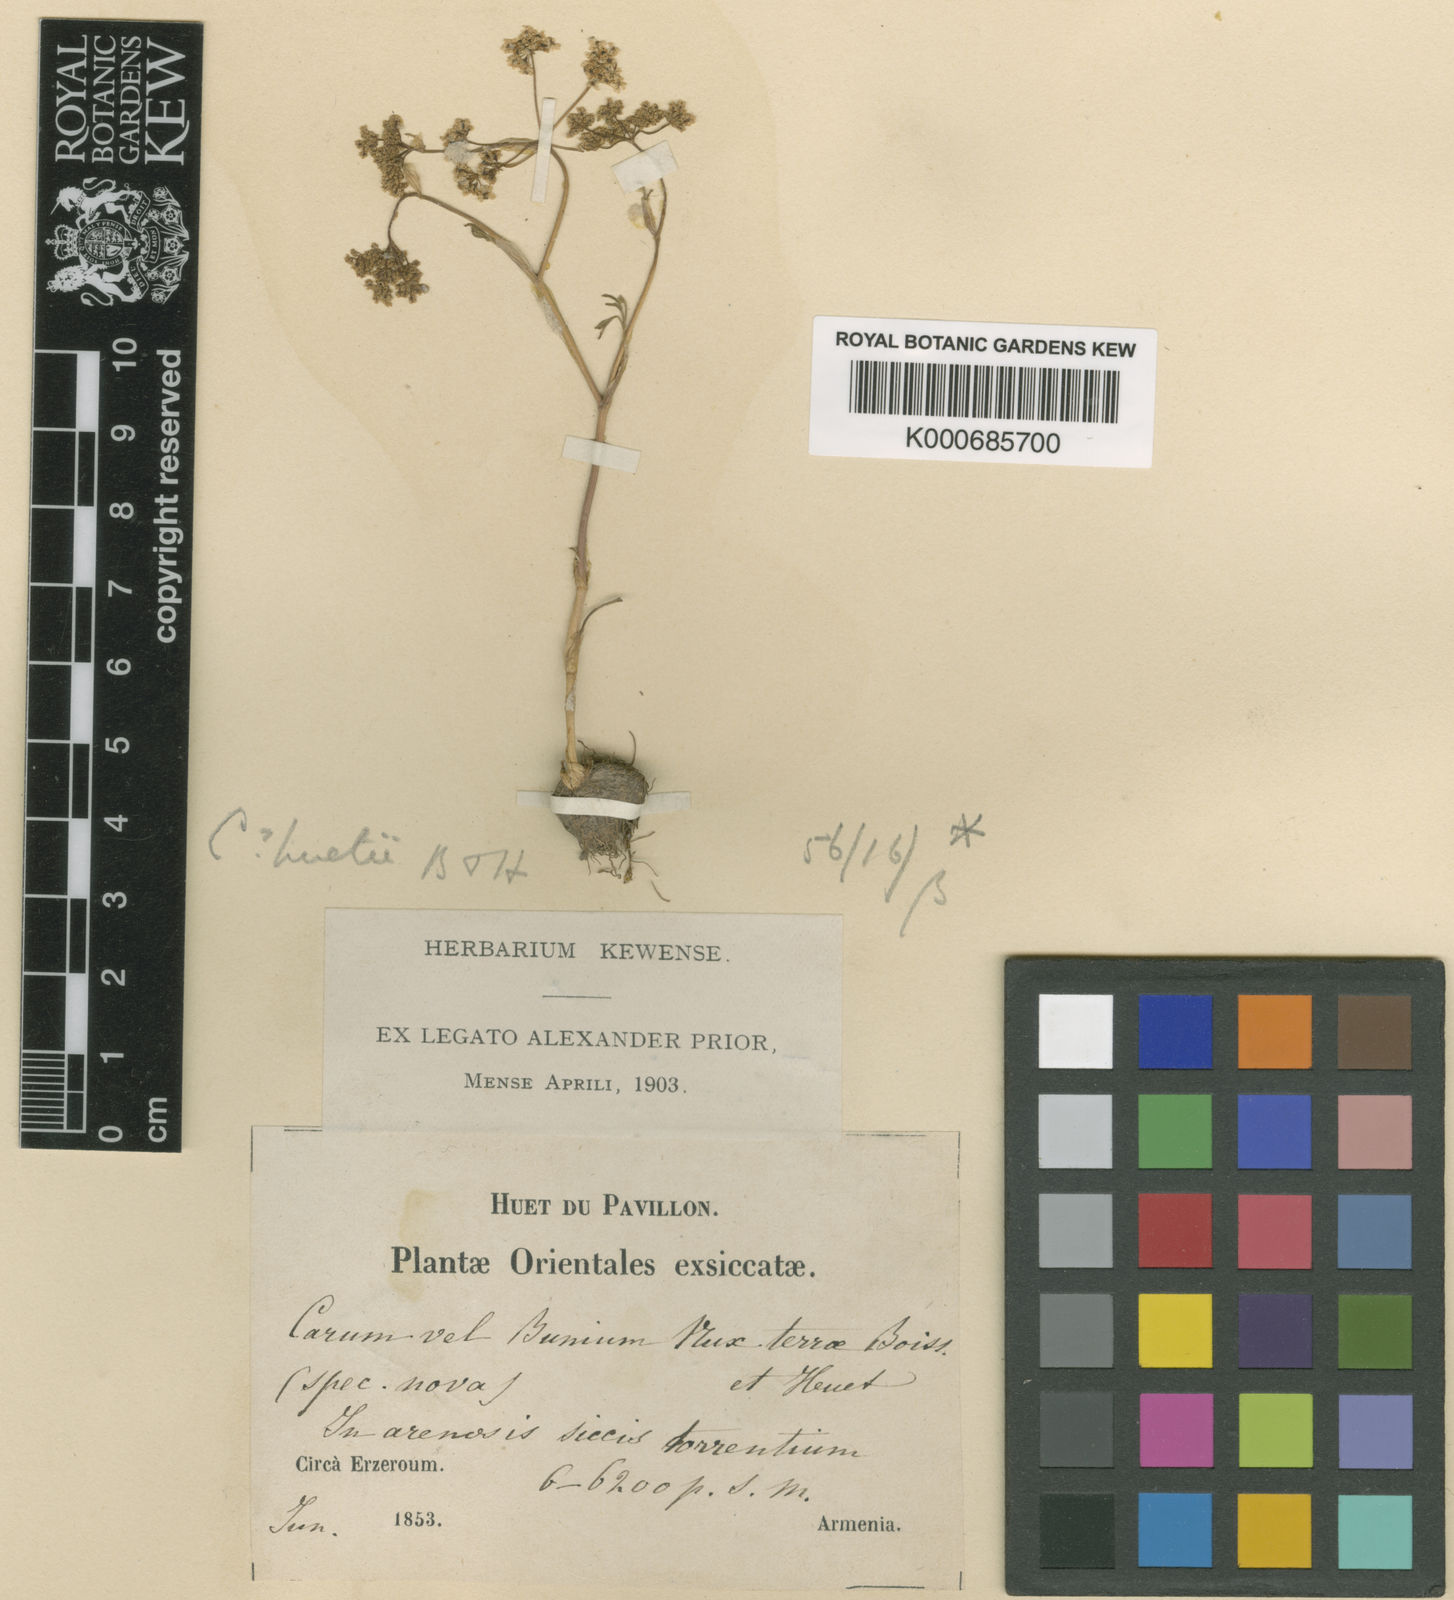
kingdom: Plantae
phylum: Tracheophyta
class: Magnoliopsida
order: Apiales
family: Apiaceae
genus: Bunium
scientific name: Bunium bourgaei
